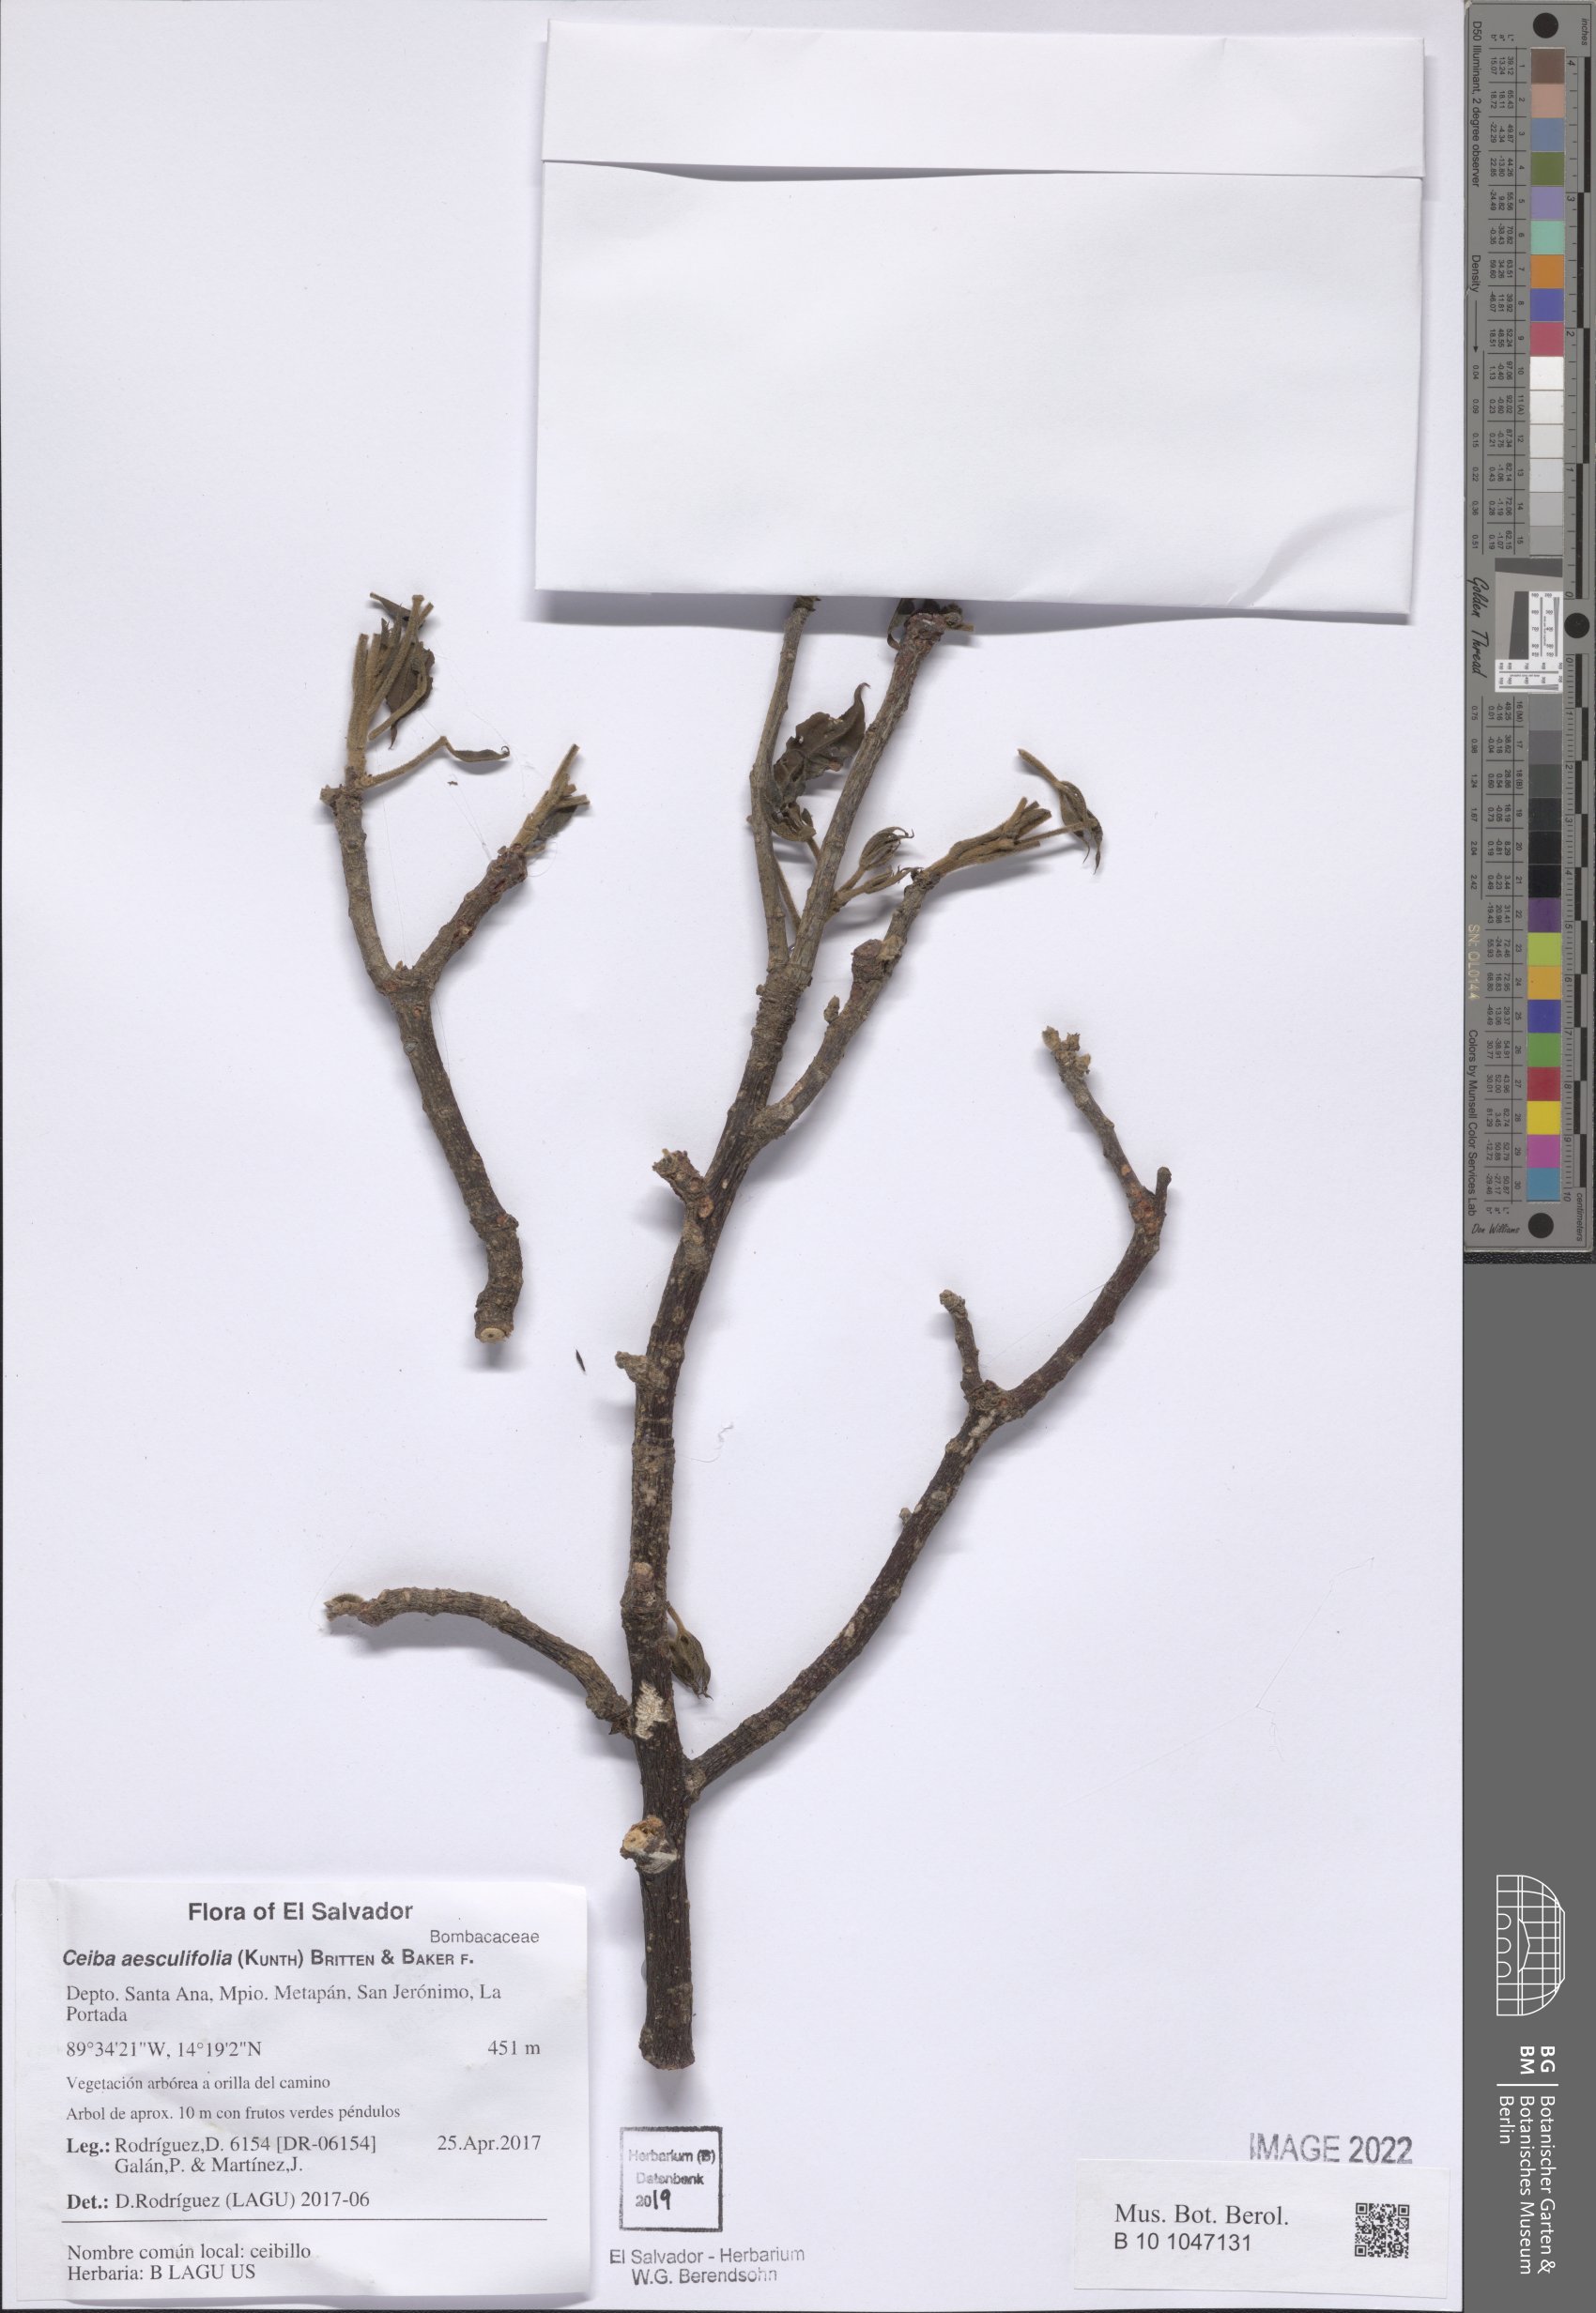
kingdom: Plantae
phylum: Tracheophyta
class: Magnoliopsida
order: Malvales
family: Malvaceae
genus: Ceiba
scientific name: Ceiba aesculifolia
